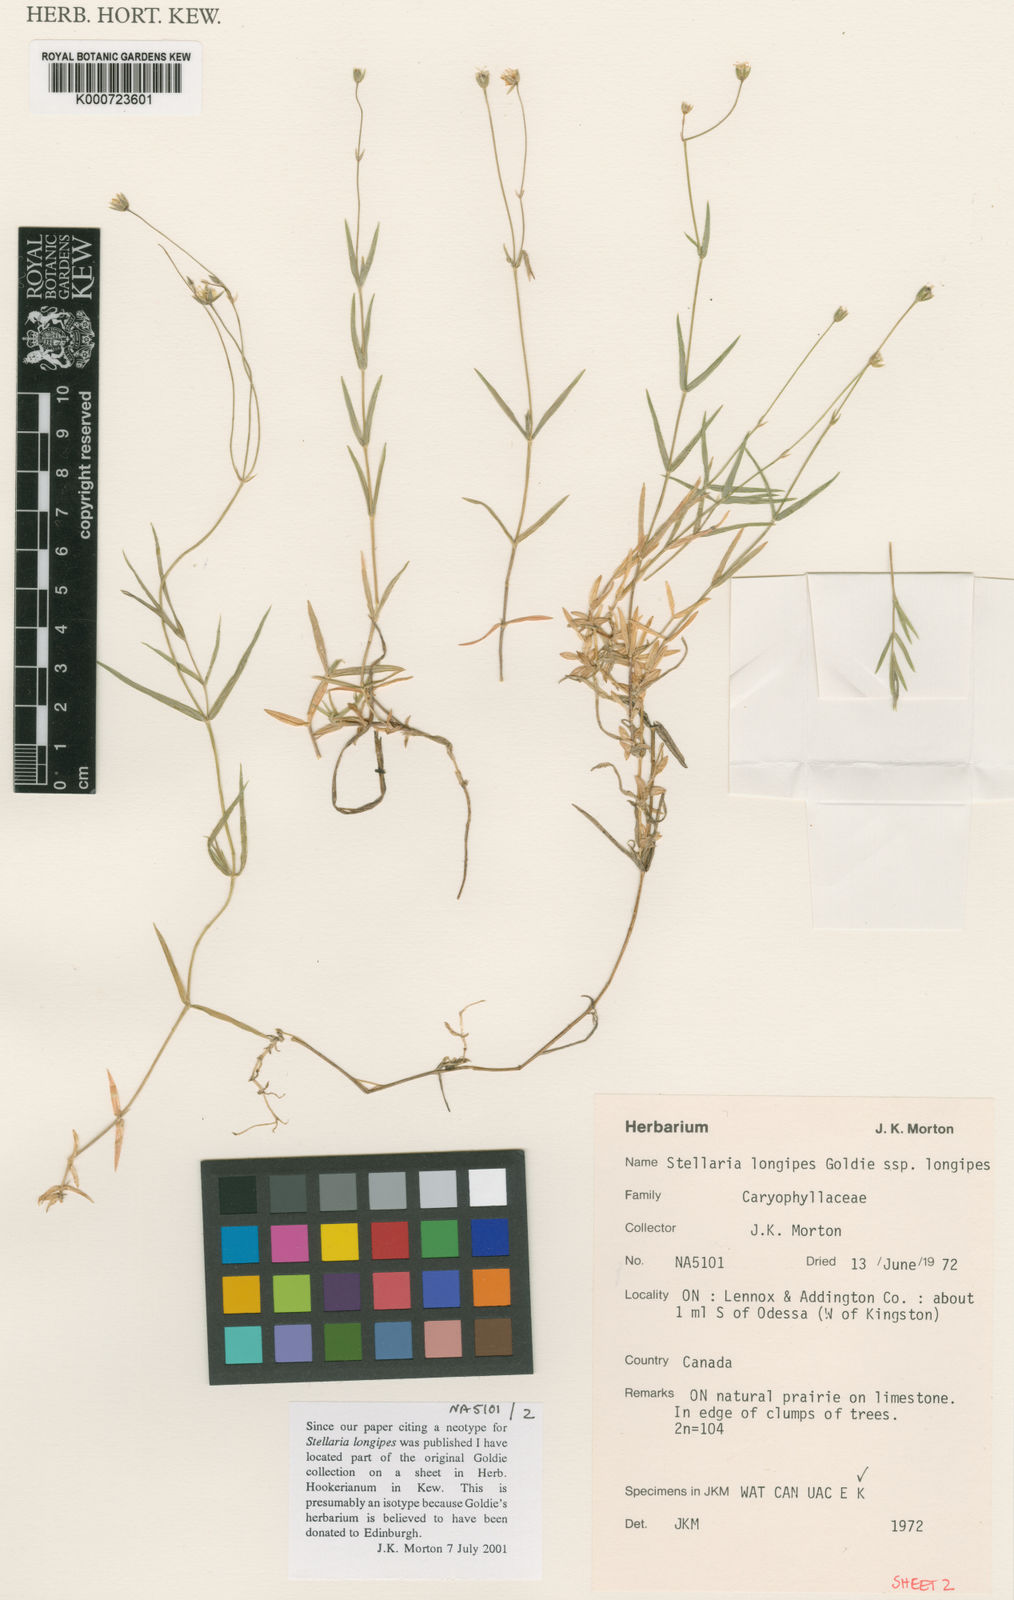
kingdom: Plantae
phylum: Tracheophyta
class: Magnoliopsida
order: Caryophyllales
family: Caryophyllaceae
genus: Stellaria
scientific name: Stellaria longipes
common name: Goldie's starwort
